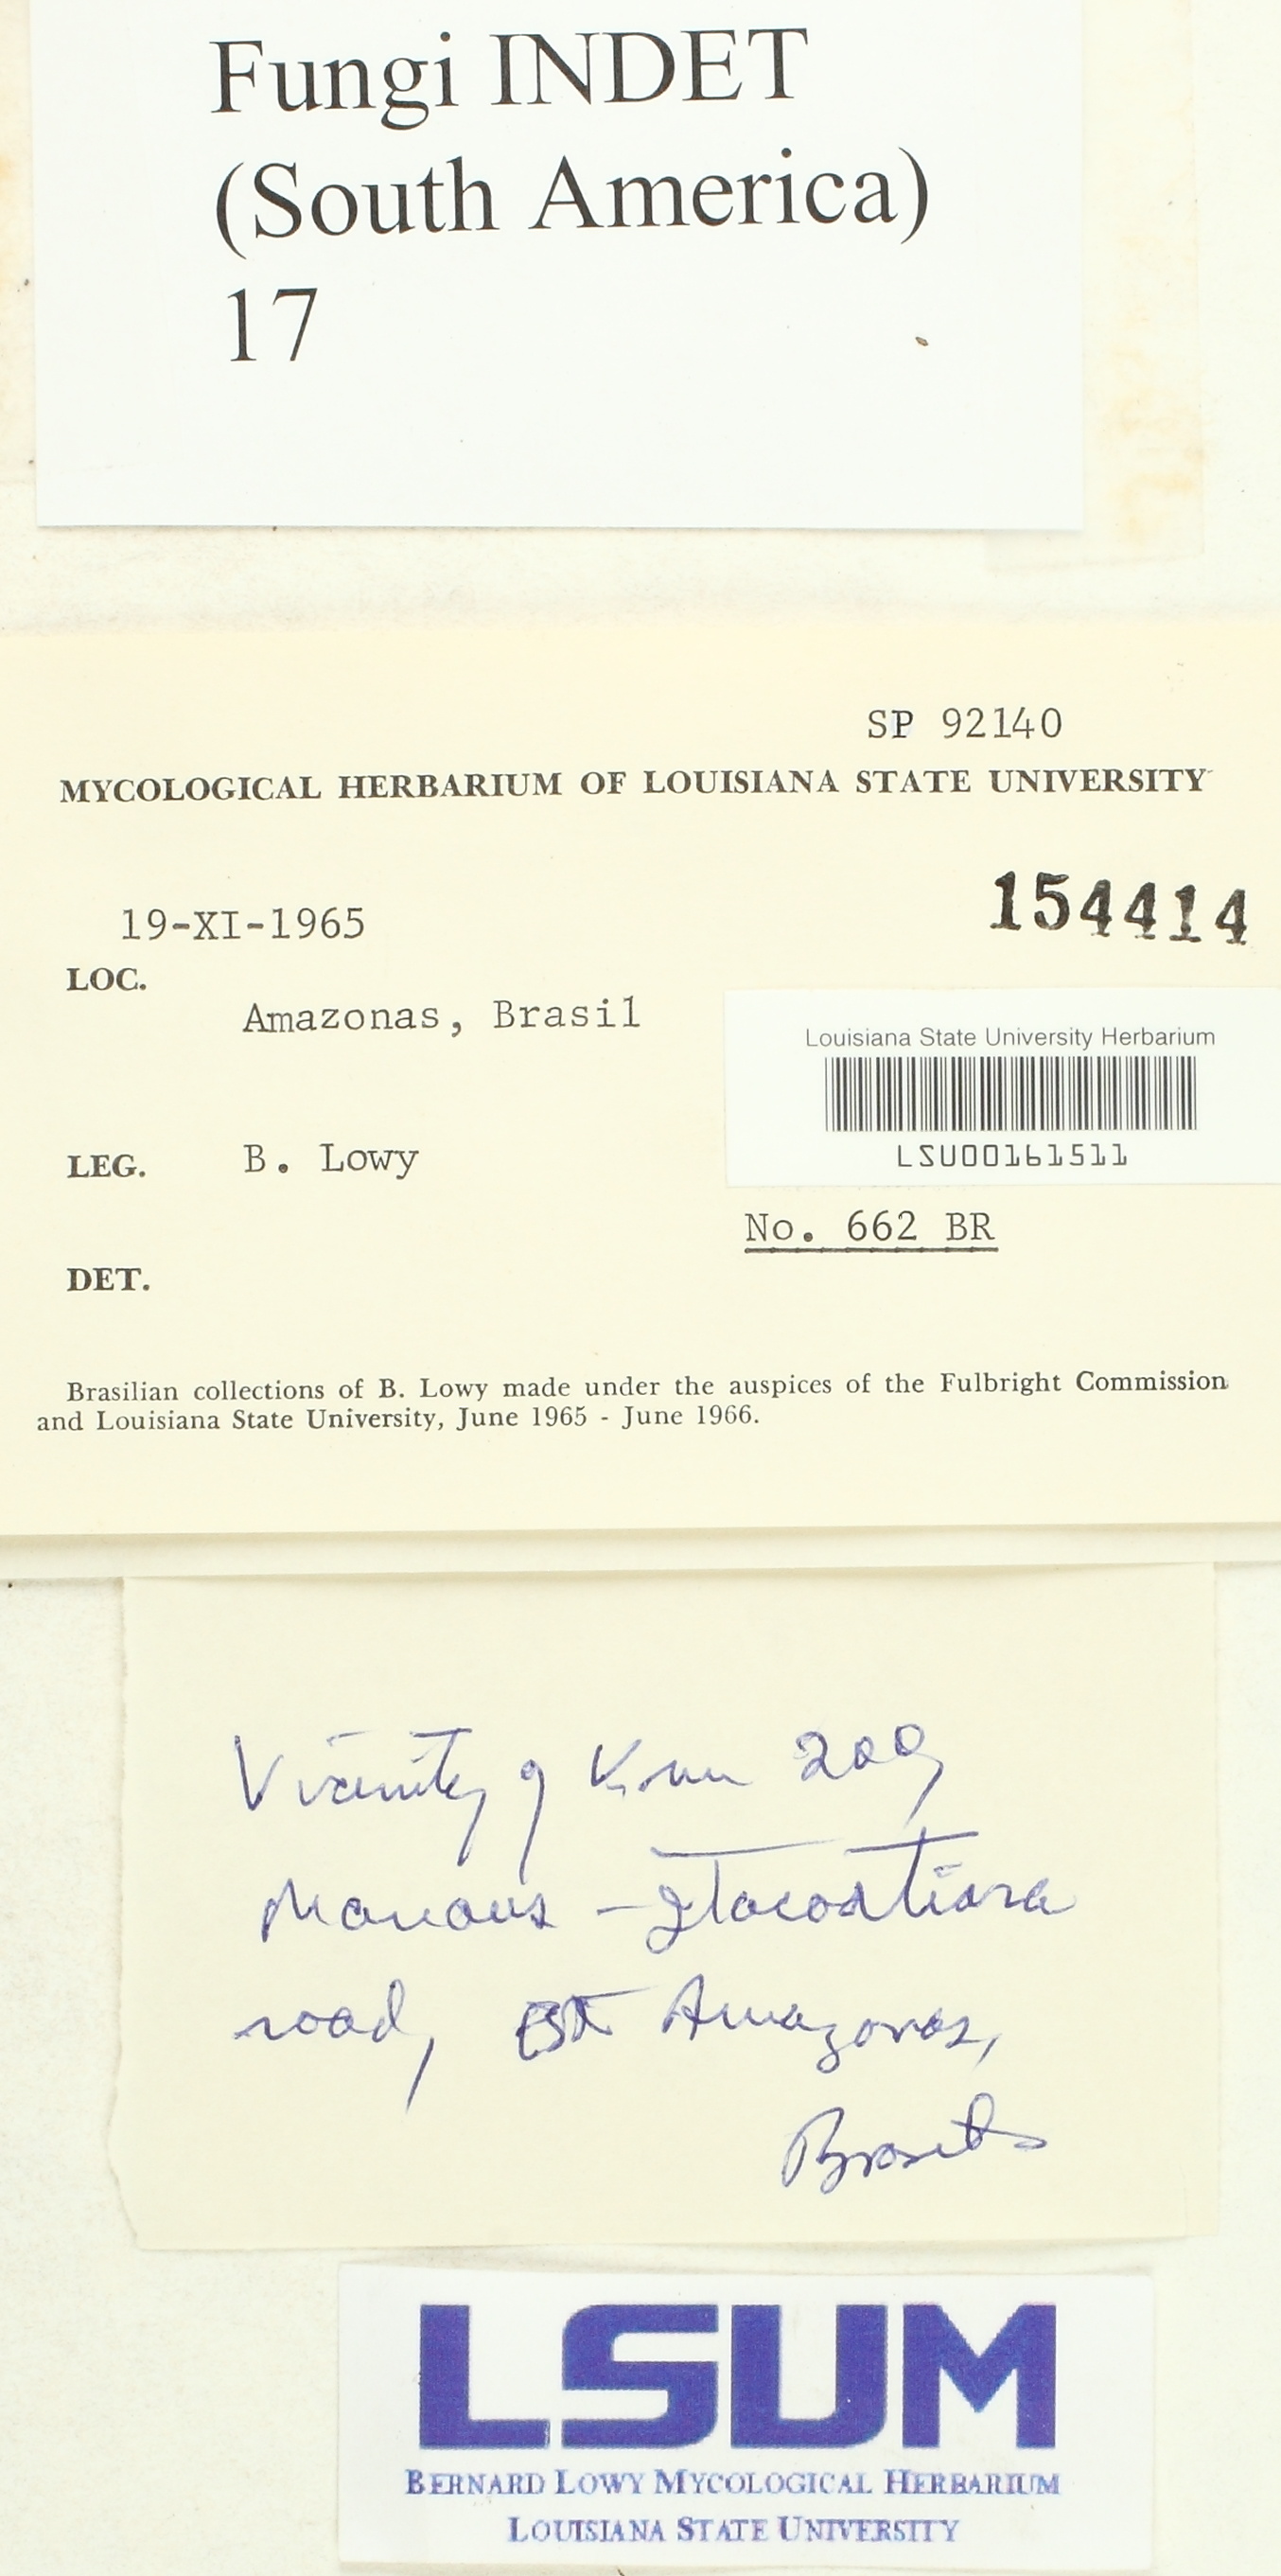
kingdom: Fungi
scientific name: Fungi
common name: Fungi
